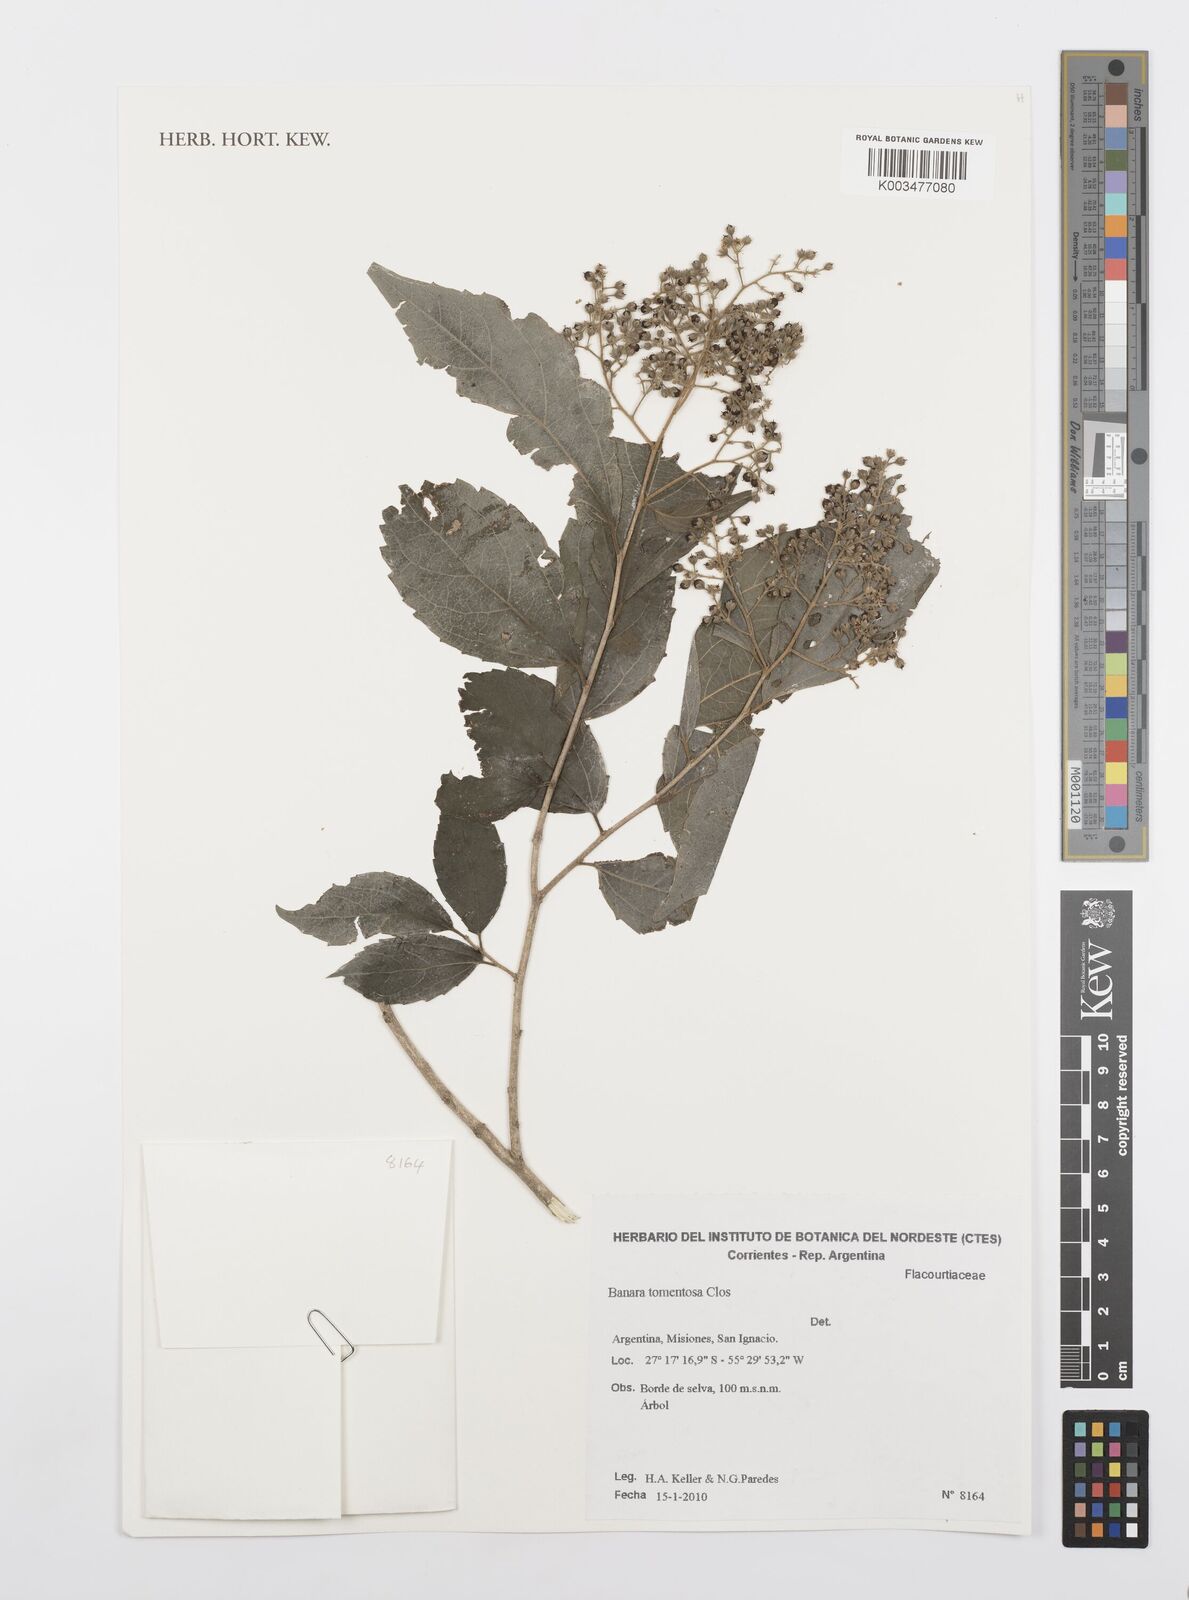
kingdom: Plantae
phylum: Tracheophyta
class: Magnoliopsida
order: Malpighiales
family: Salicaceae
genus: Banara
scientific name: Banara tomentosa
